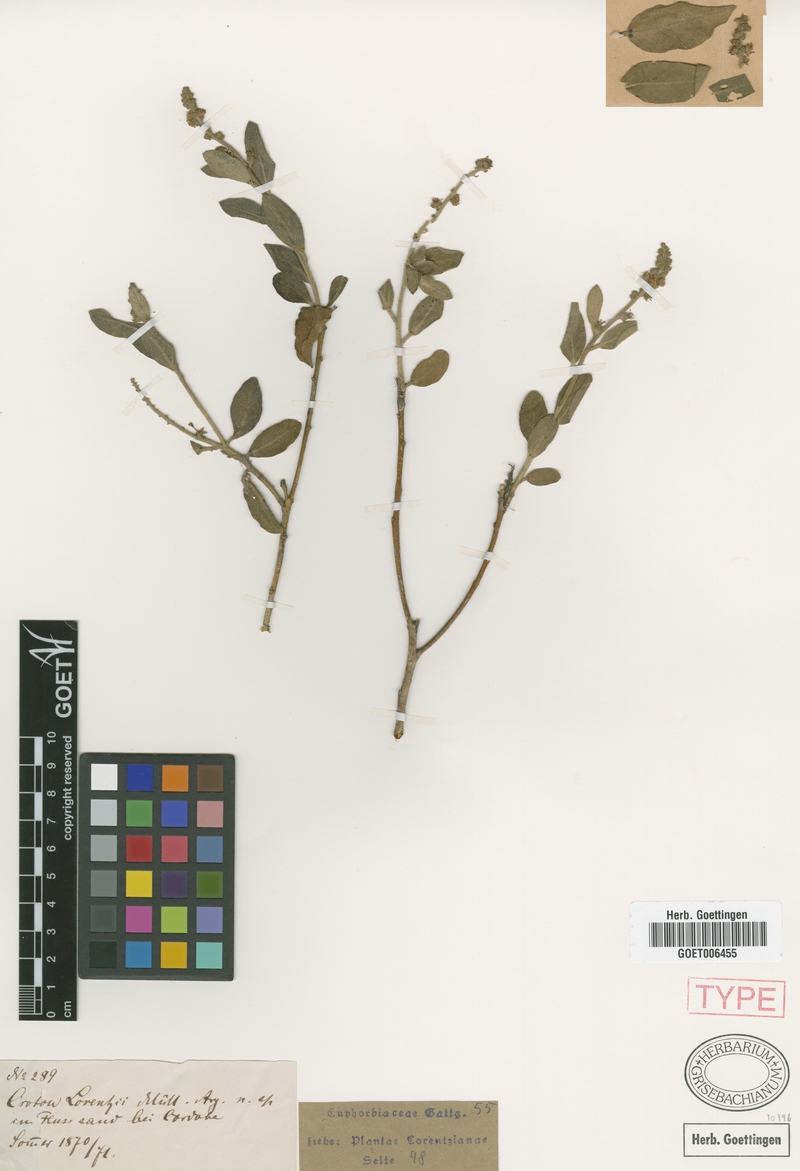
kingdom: Plantae
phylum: Tracheophyta
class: Magnoliopsida
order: Malpighiales
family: Euphorbiaceae
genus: Croton
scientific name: Croton lorentzii
